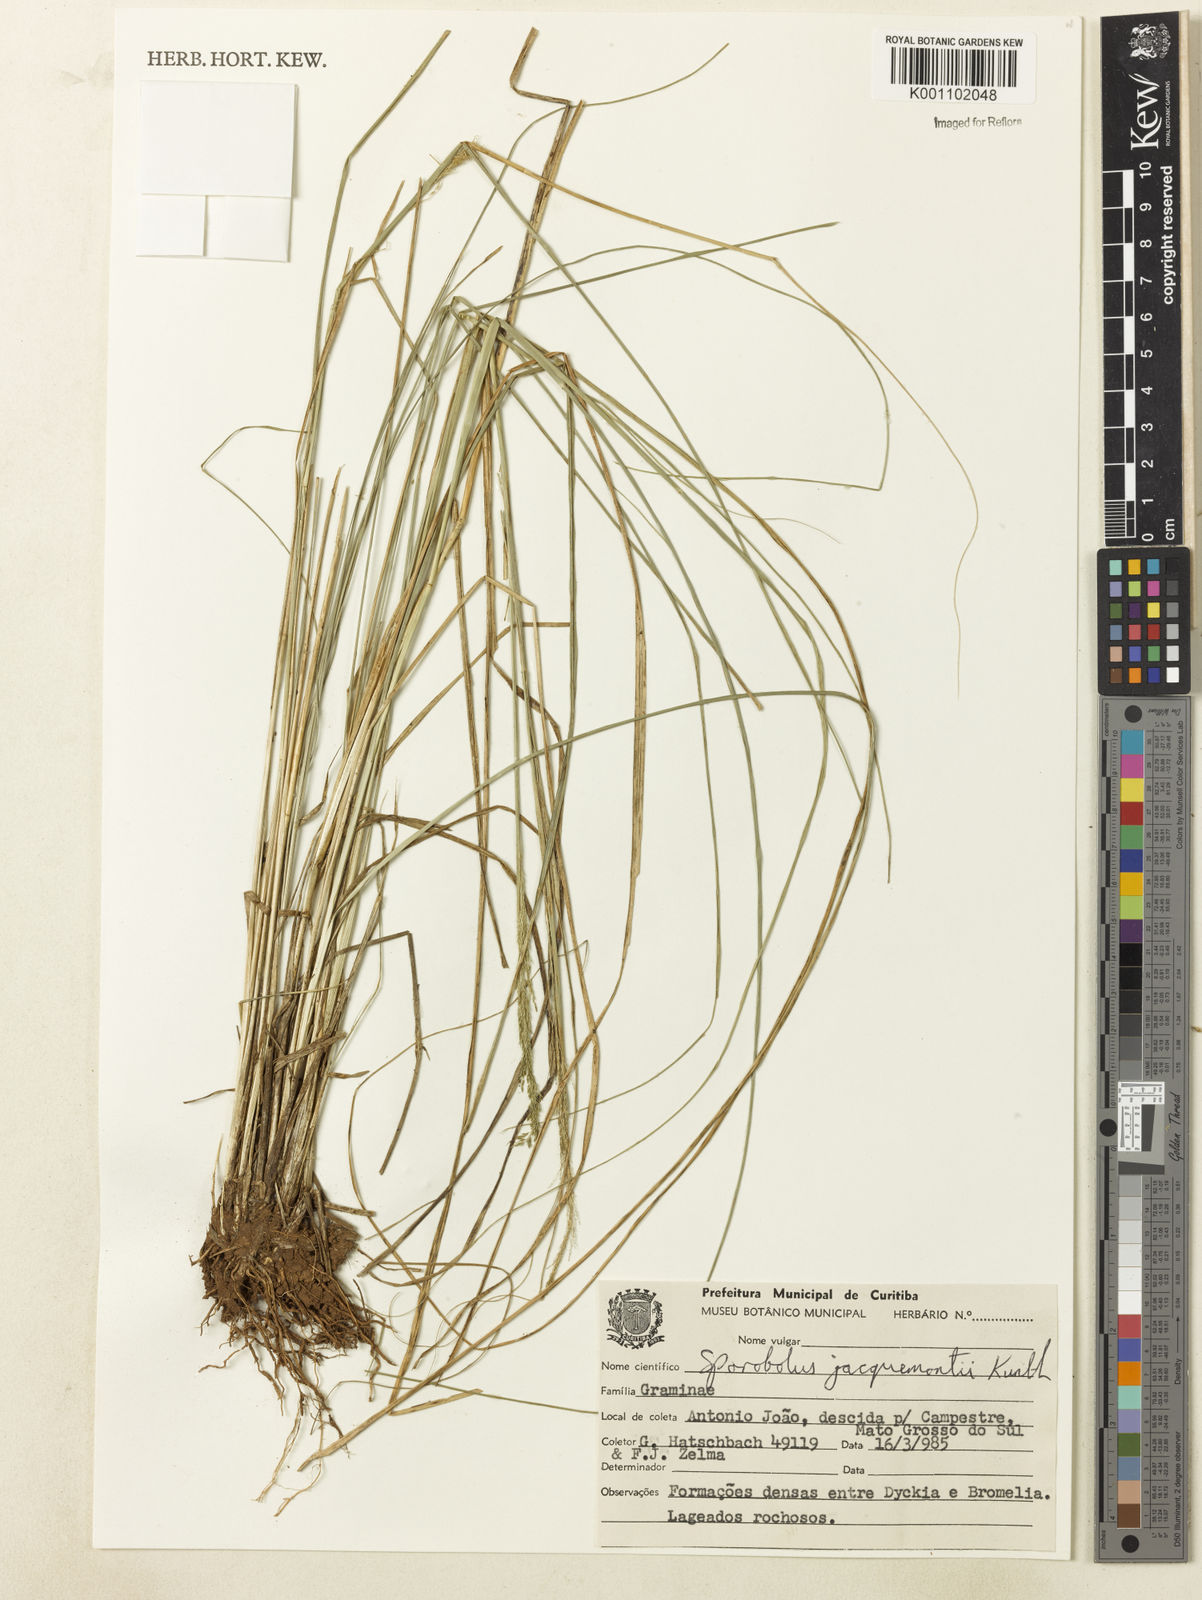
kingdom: Plantae
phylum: Tracheophyta
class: Liliopsida
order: Poales
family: Poaceae
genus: Sporobolus
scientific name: Sporobolus pyramidalis
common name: West indian dropseed
